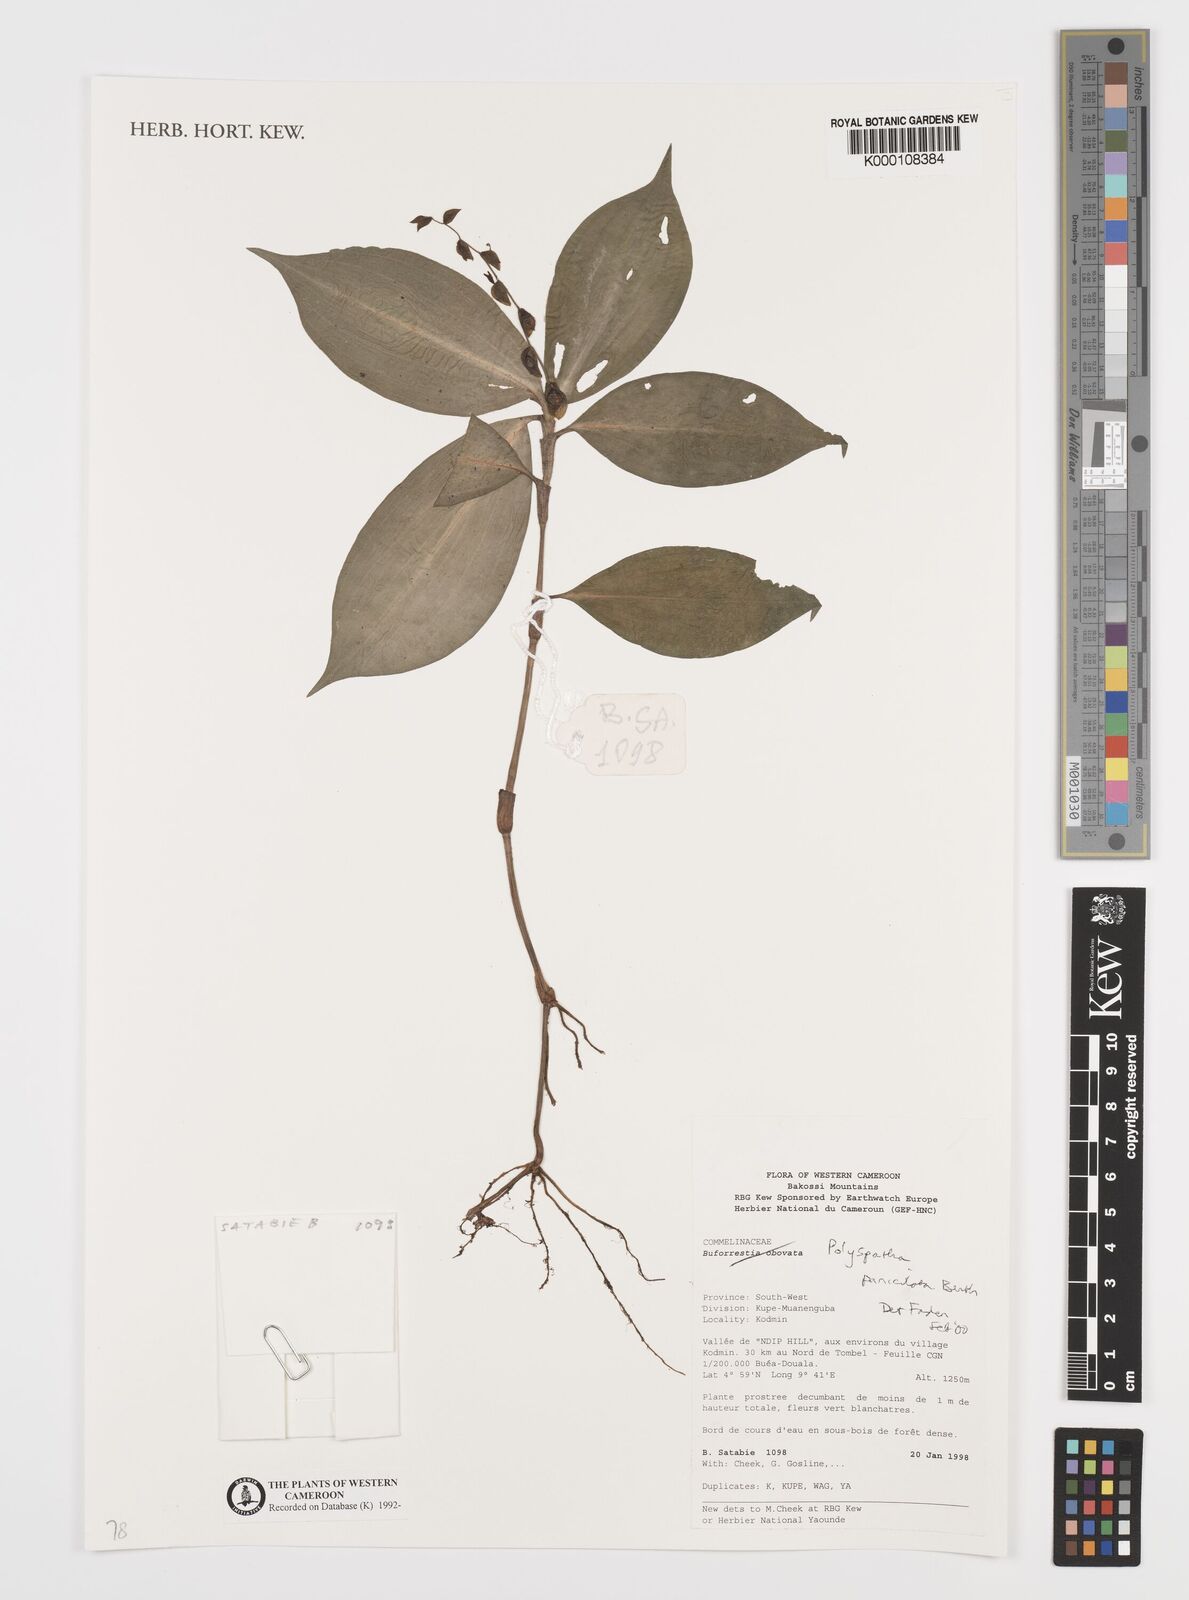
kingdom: Plantae
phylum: Tracheophyta
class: Liliopsida
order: Commelinales
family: Commelinaceae
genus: Polyspatha
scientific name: Polyspatha paniculata
